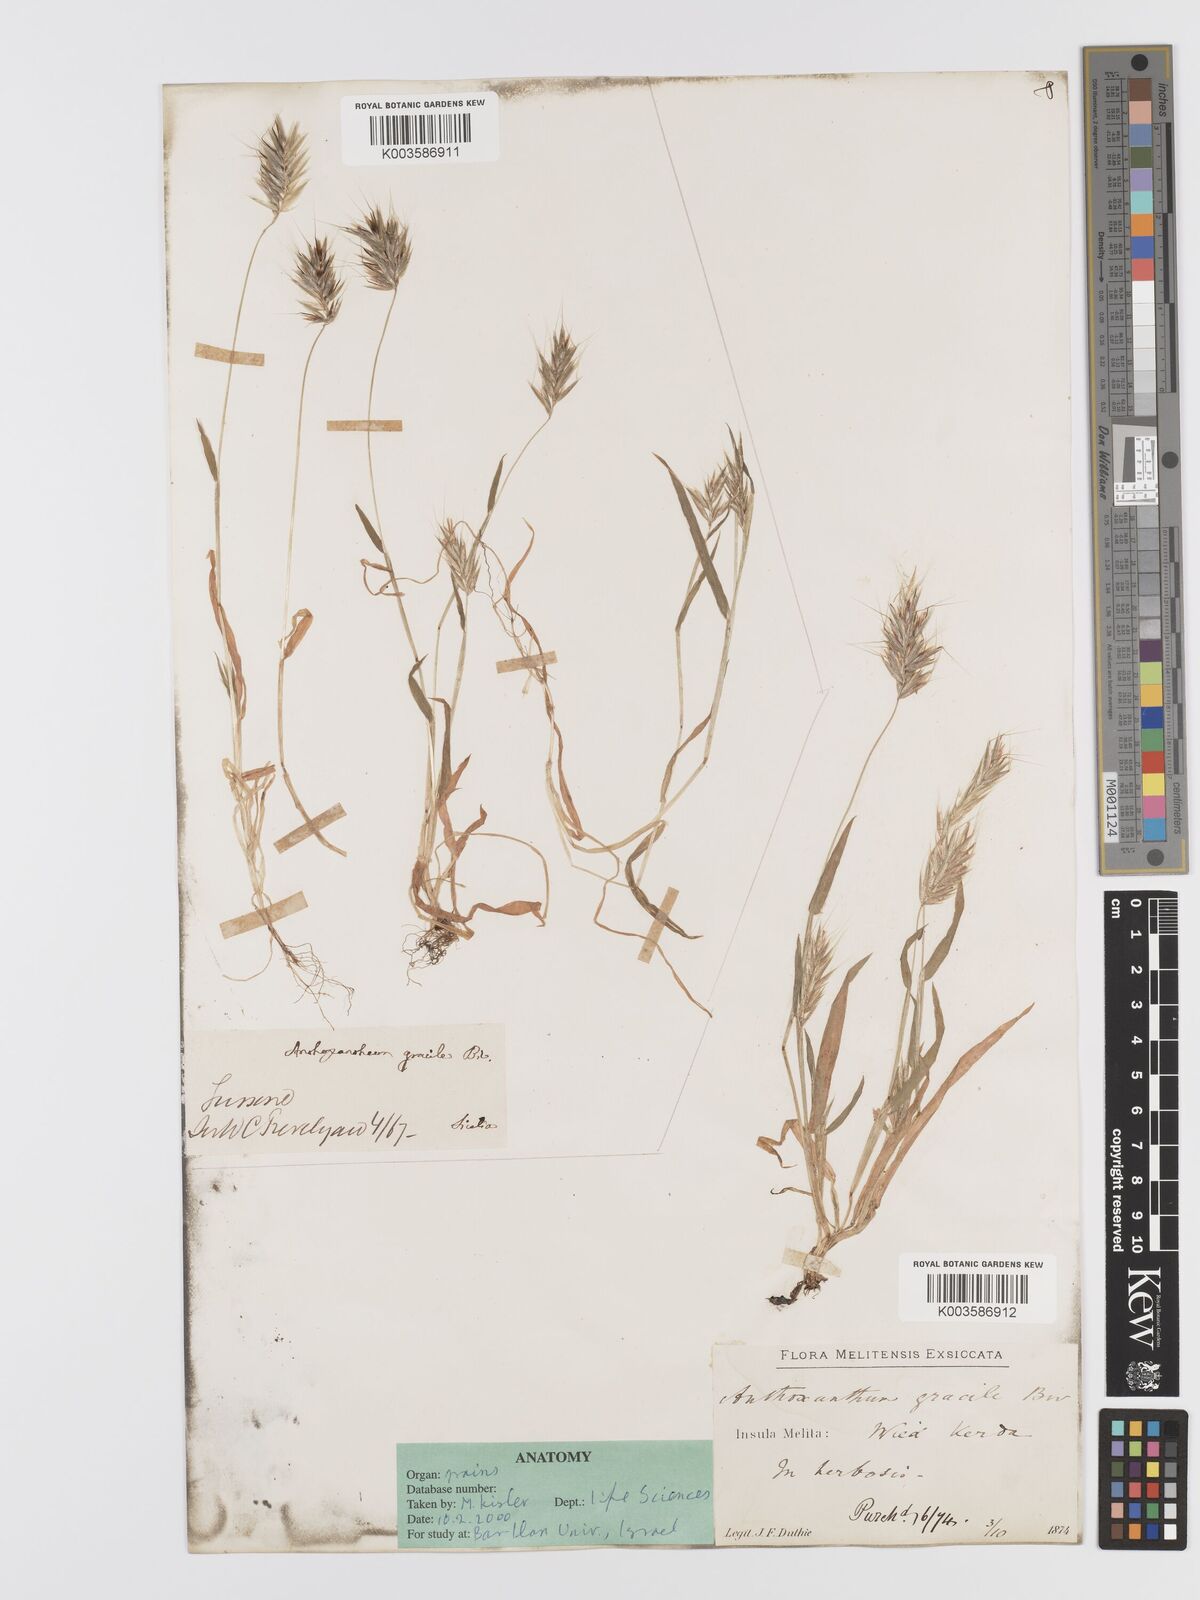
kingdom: Plantae
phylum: Tracheophyta
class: Liliopsida
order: Poales
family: Poaceae
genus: Anthoxanthum
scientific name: Anthoxanthum gracile
